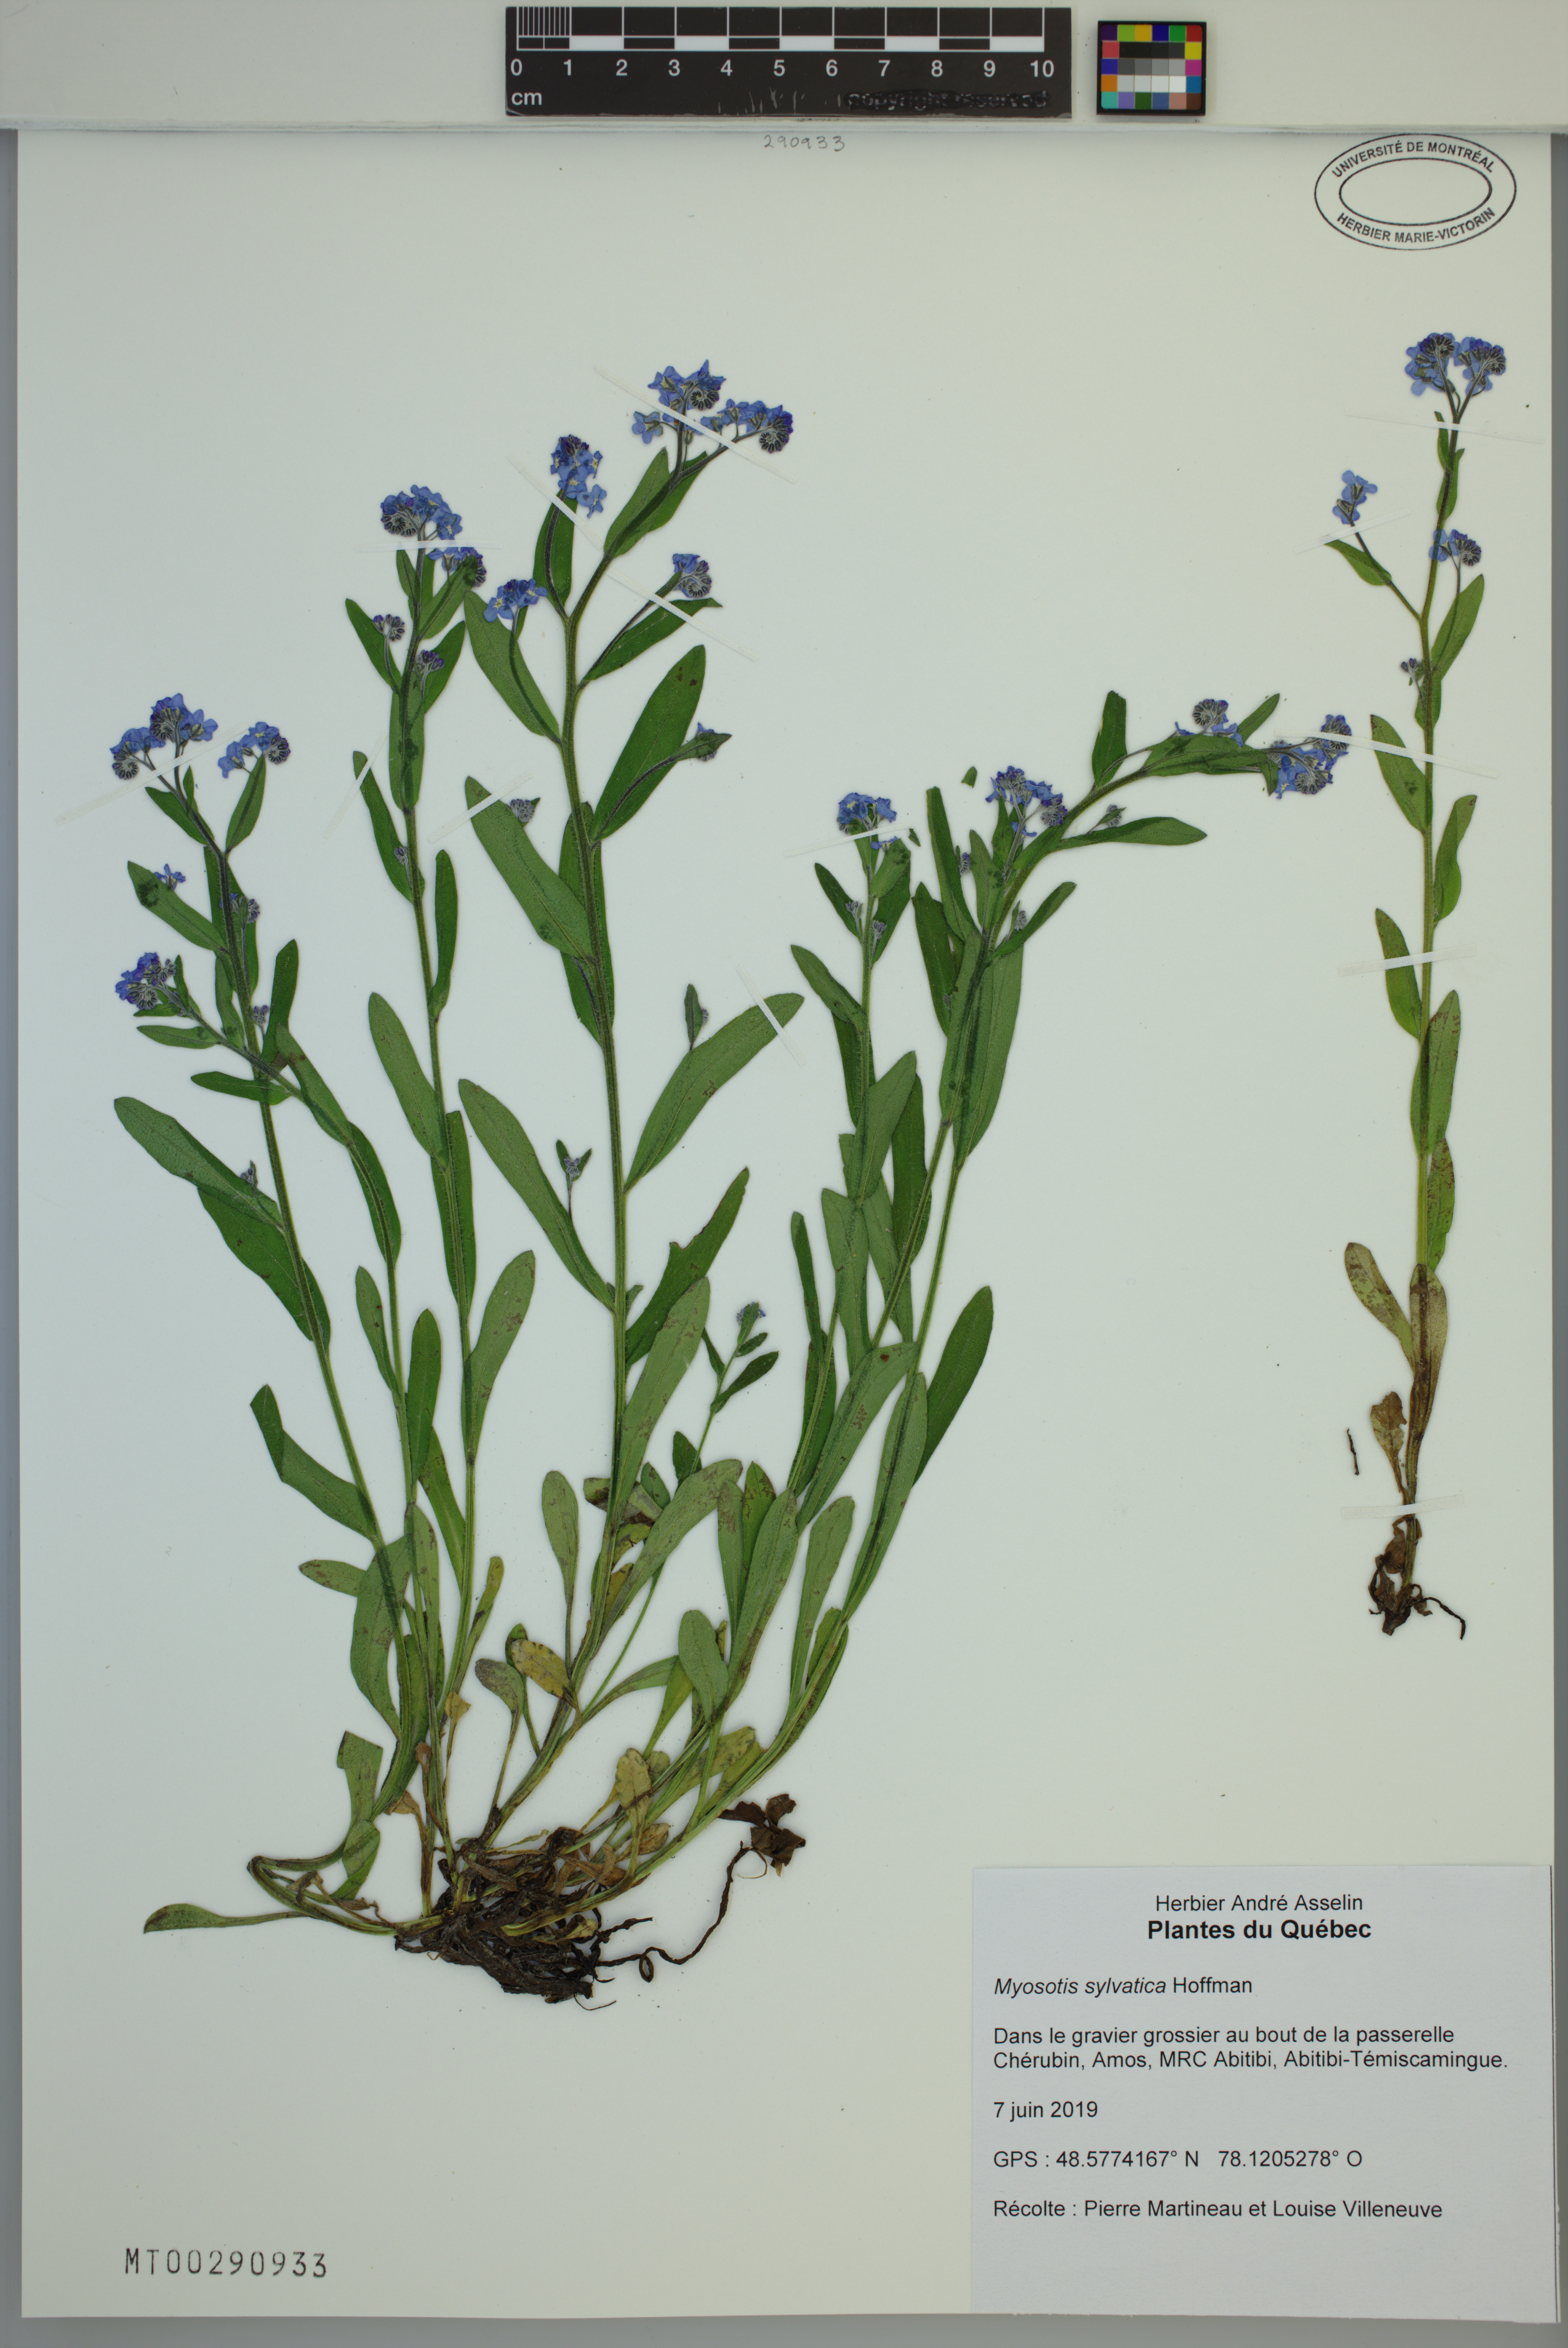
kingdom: Plantae
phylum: Tracheophyta
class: Magnoliopsida
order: Boraginales
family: Boraginaceae
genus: Myosotis
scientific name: Myosotis sylvatica
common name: Wood forget-me-not
